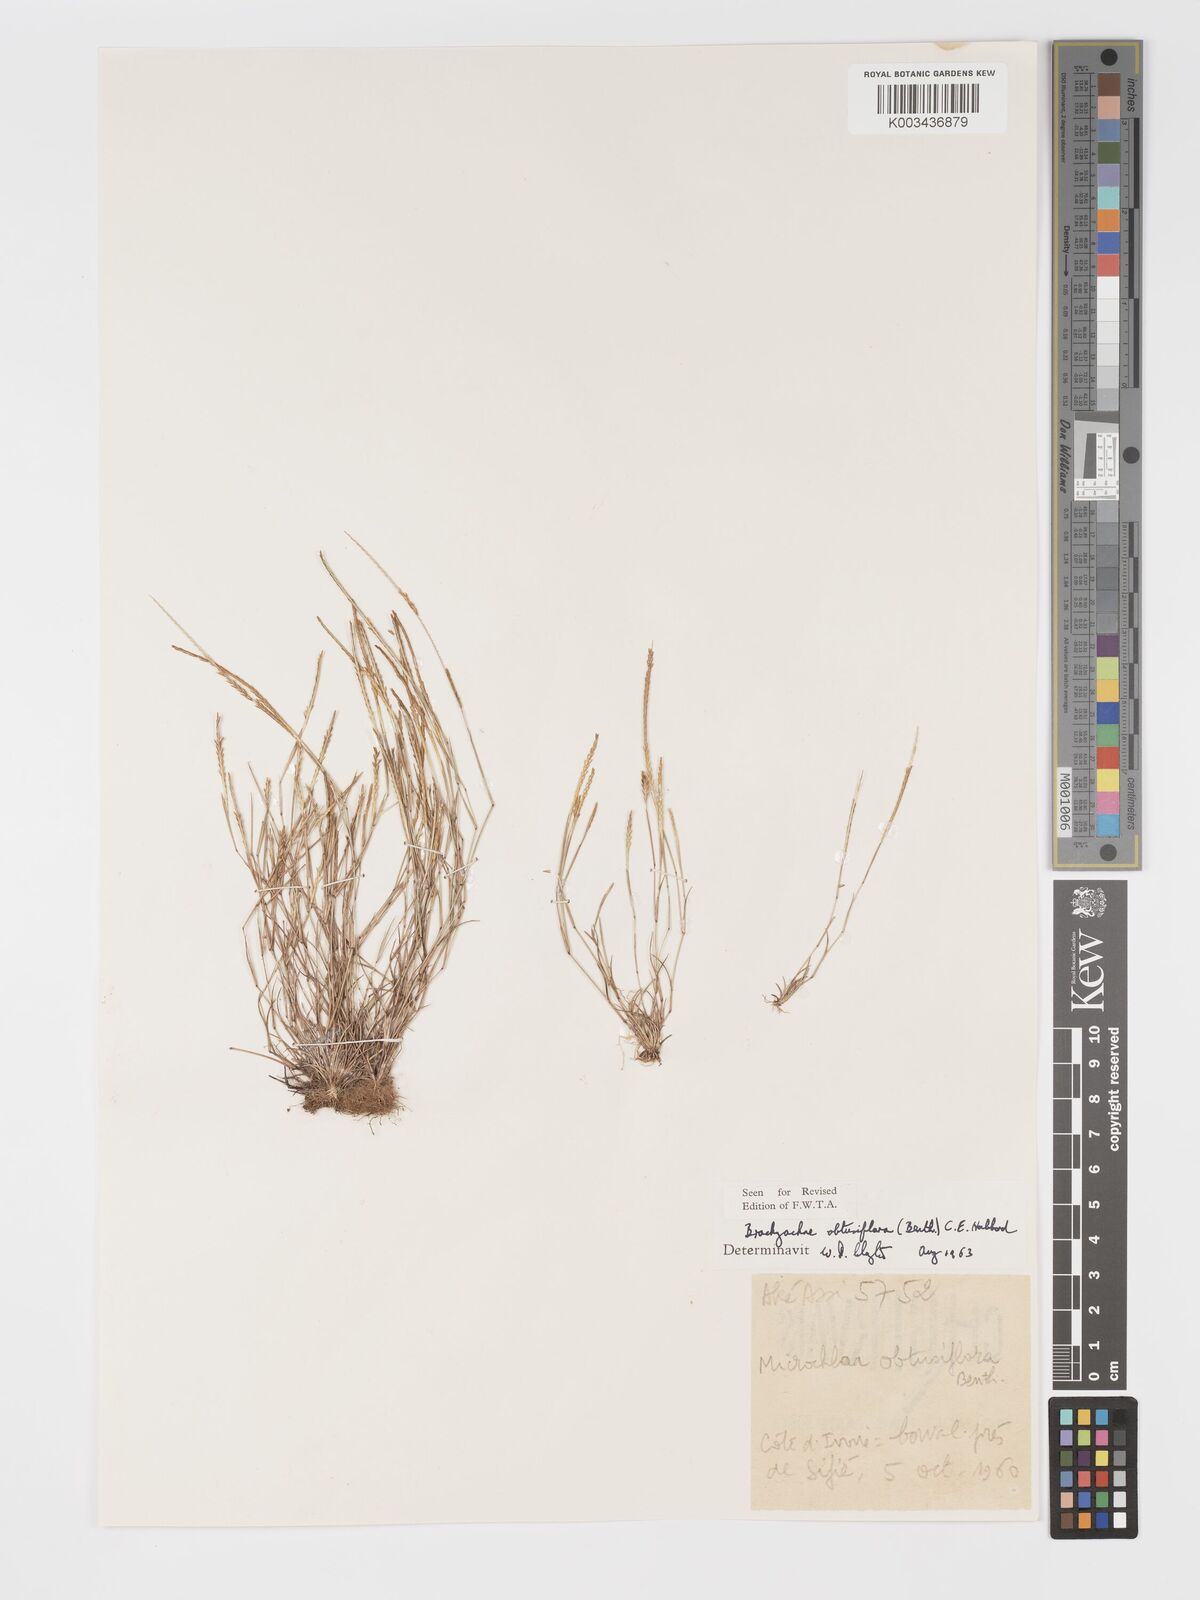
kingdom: Plantae
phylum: Tracheophyta
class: Liliopsida
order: Poales
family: Poaceae
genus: Micrachne
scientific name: Micrachne obtusiflora
